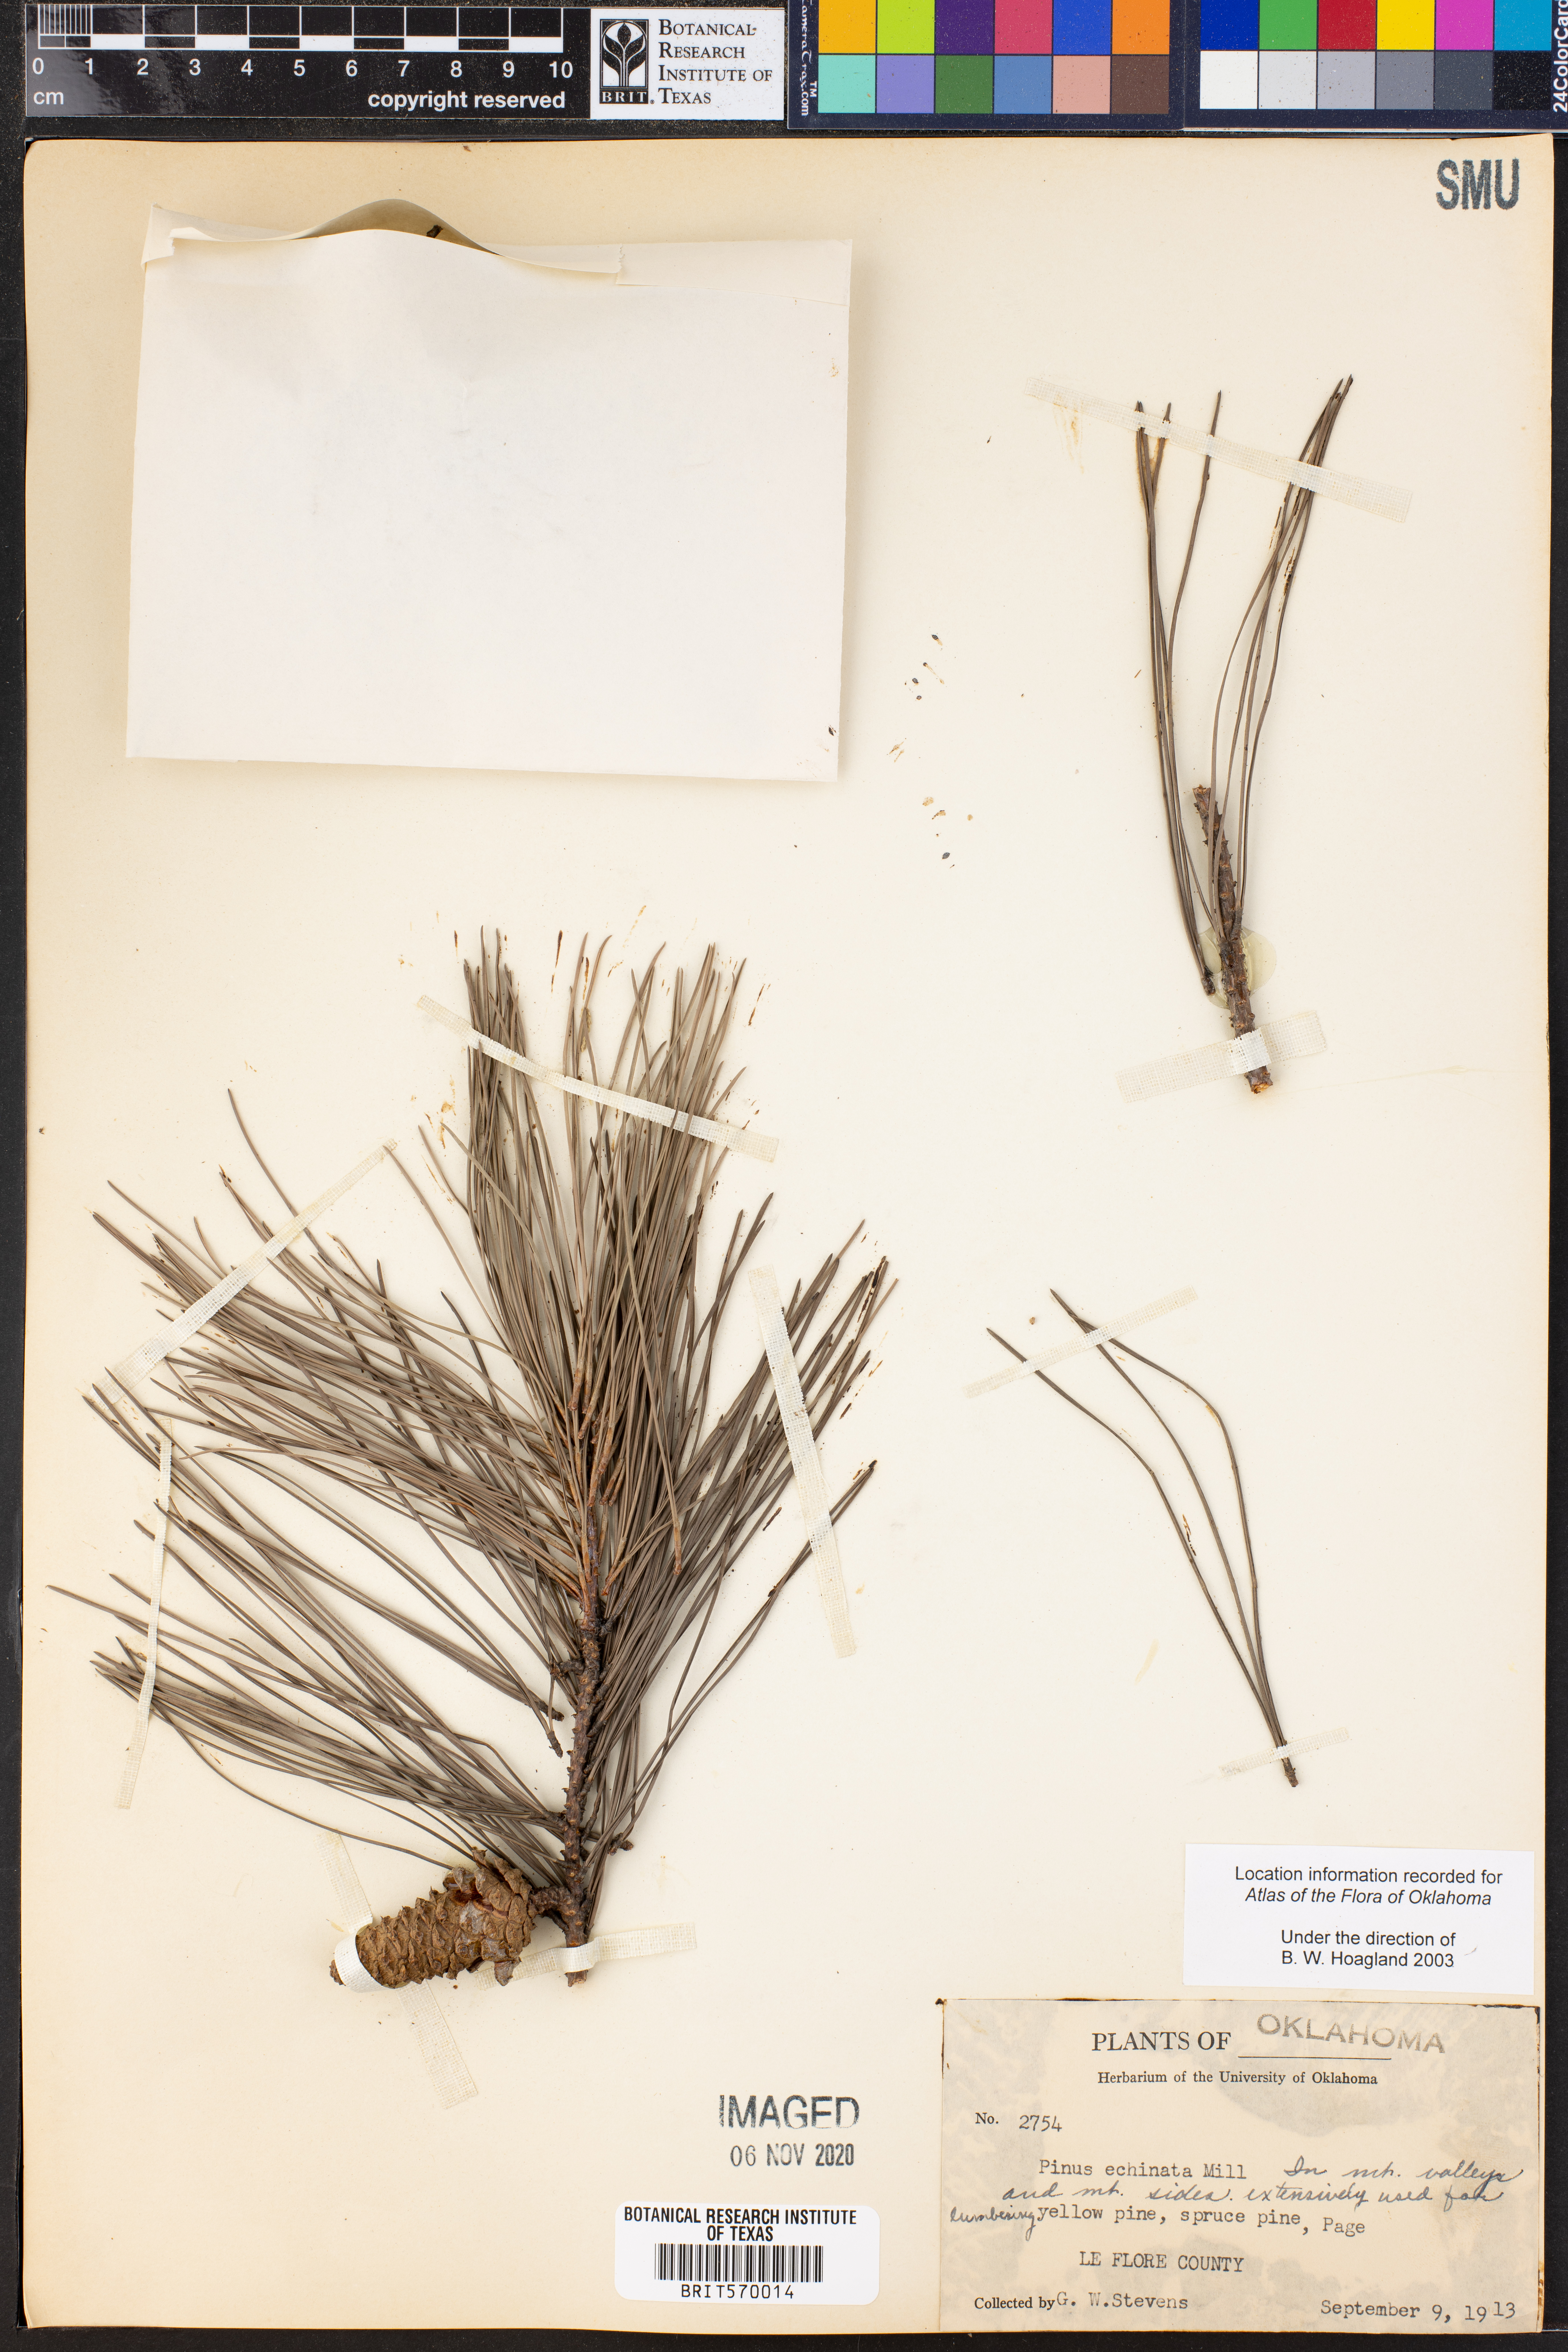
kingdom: Plantae
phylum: Tracheophyta
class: Pinopsida
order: Pinales
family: Pinaceae
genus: Pinus
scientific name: Pinus echinata
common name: Shortleaf pine
